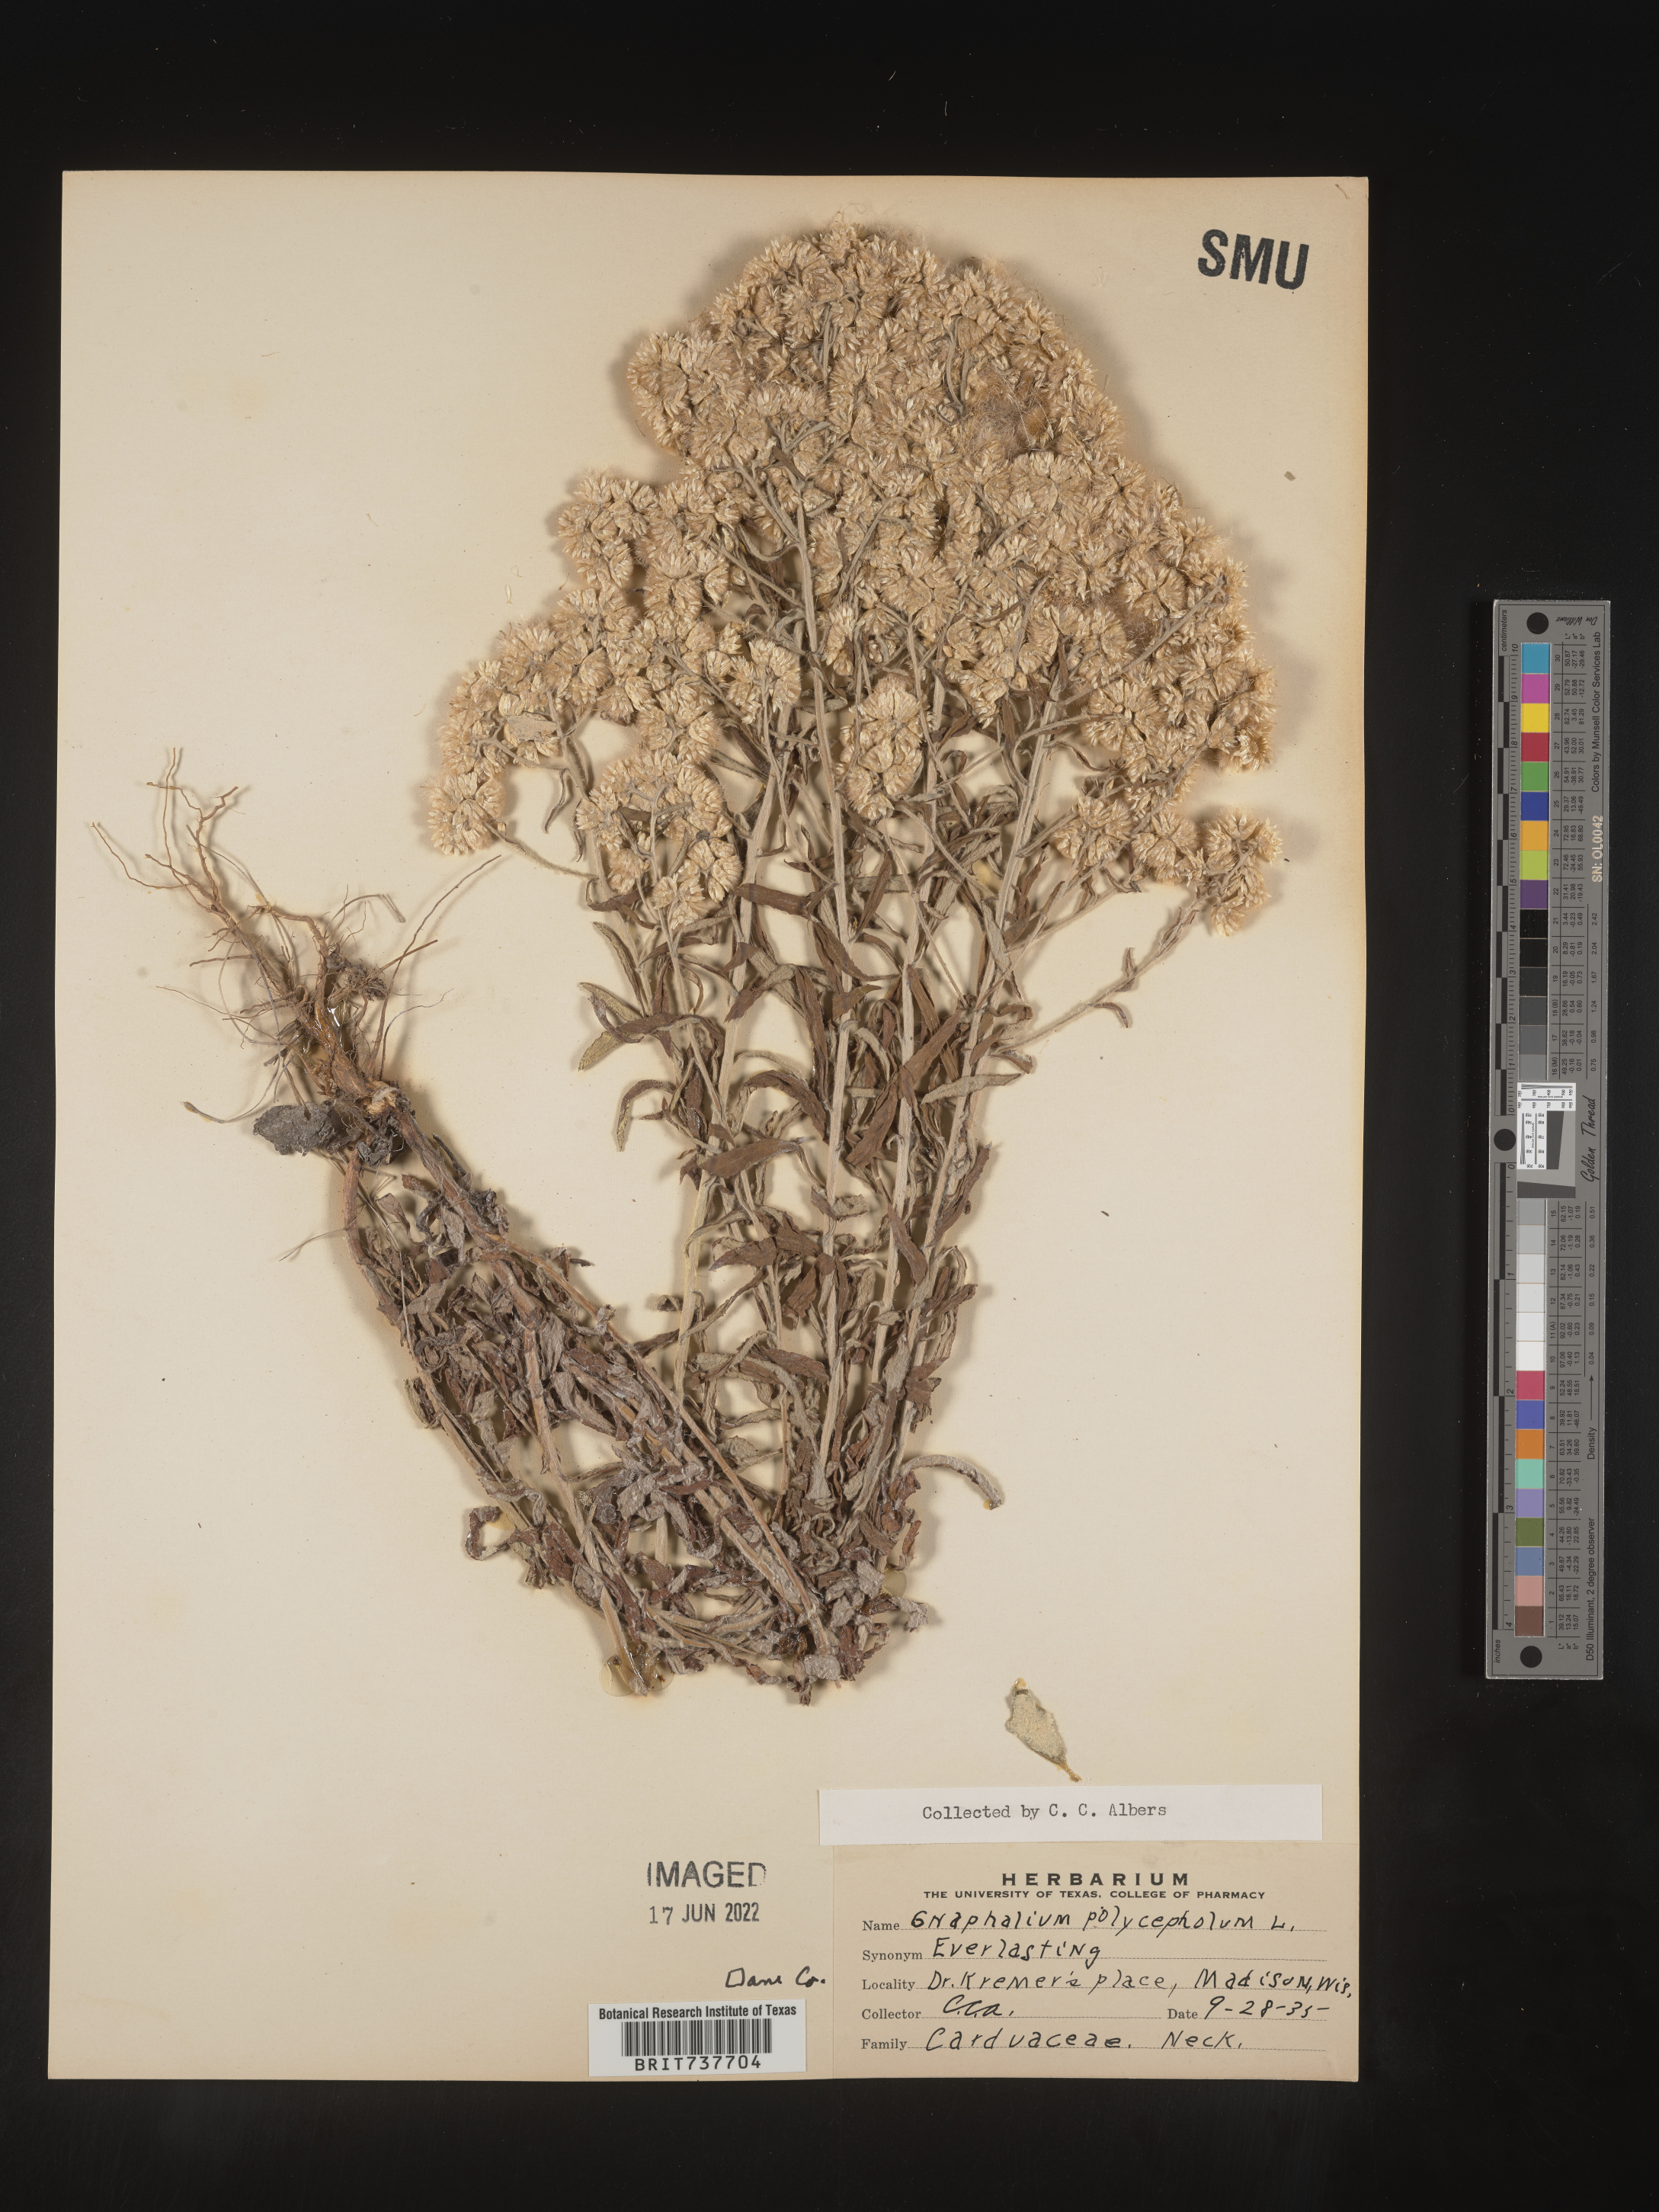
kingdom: Plantae
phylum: Tracheophyta
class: Magnoliopsida
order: Asterales
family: Asteraceae
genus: Pseudognaphalium
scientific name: Pseudognaphalium obtusifolium
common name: Eastern rabbit-tobacco
